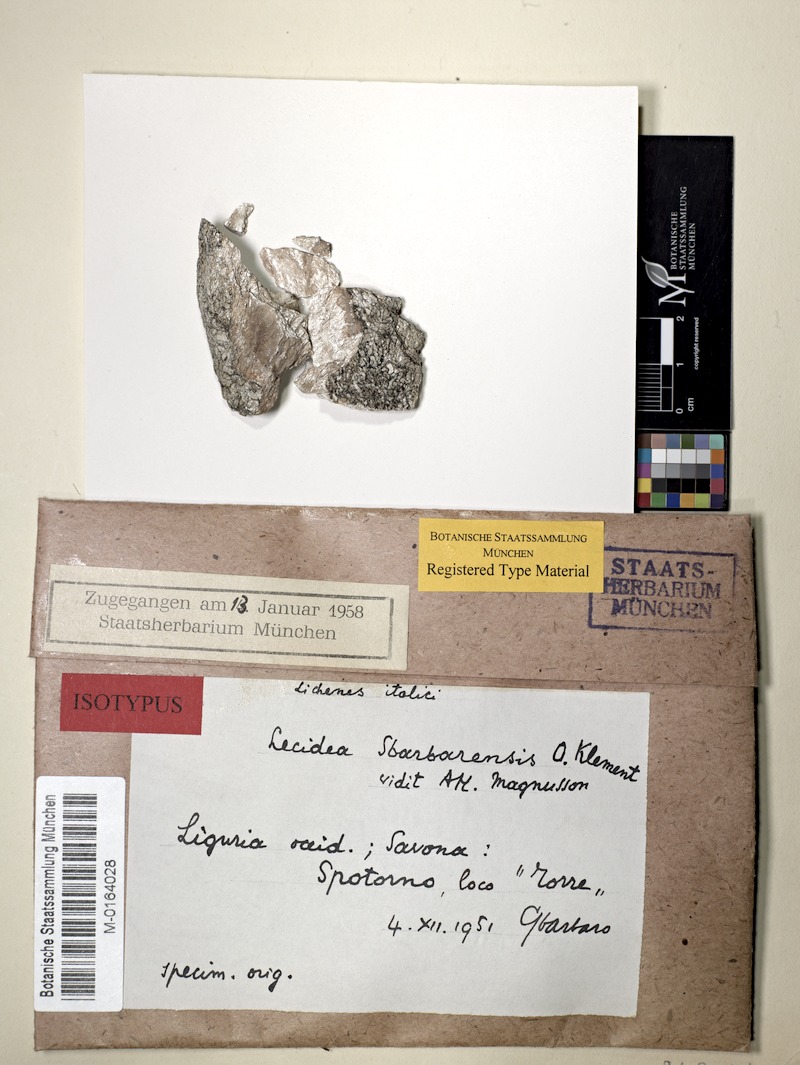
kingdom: Fungi
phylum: Ascomycota
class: Lecanoromycetes
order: Lecideales
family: Lecideaceae
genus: Lecidea
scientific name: Lecidea
